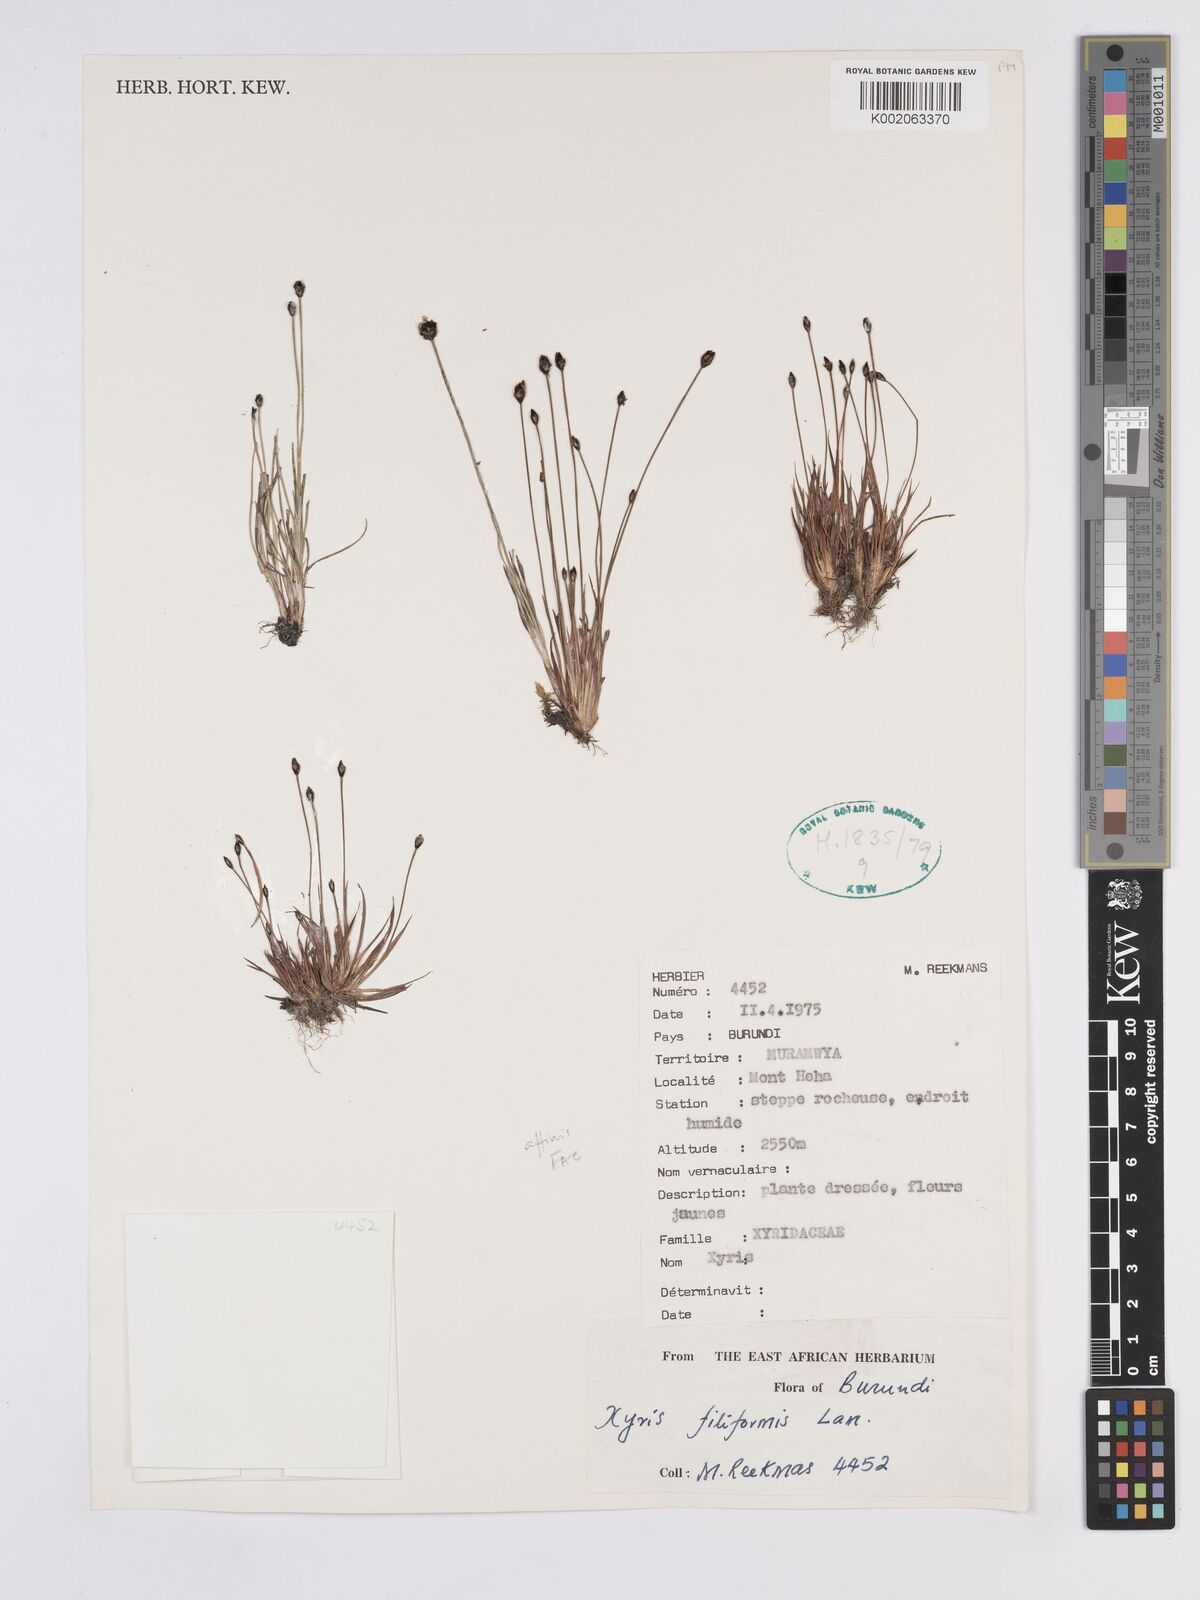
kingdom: Plantae
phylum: Tracheophyta
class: Liliopsida
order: Poales
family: Xyridaceae
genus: Xyris
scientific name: Xyris filiformis
